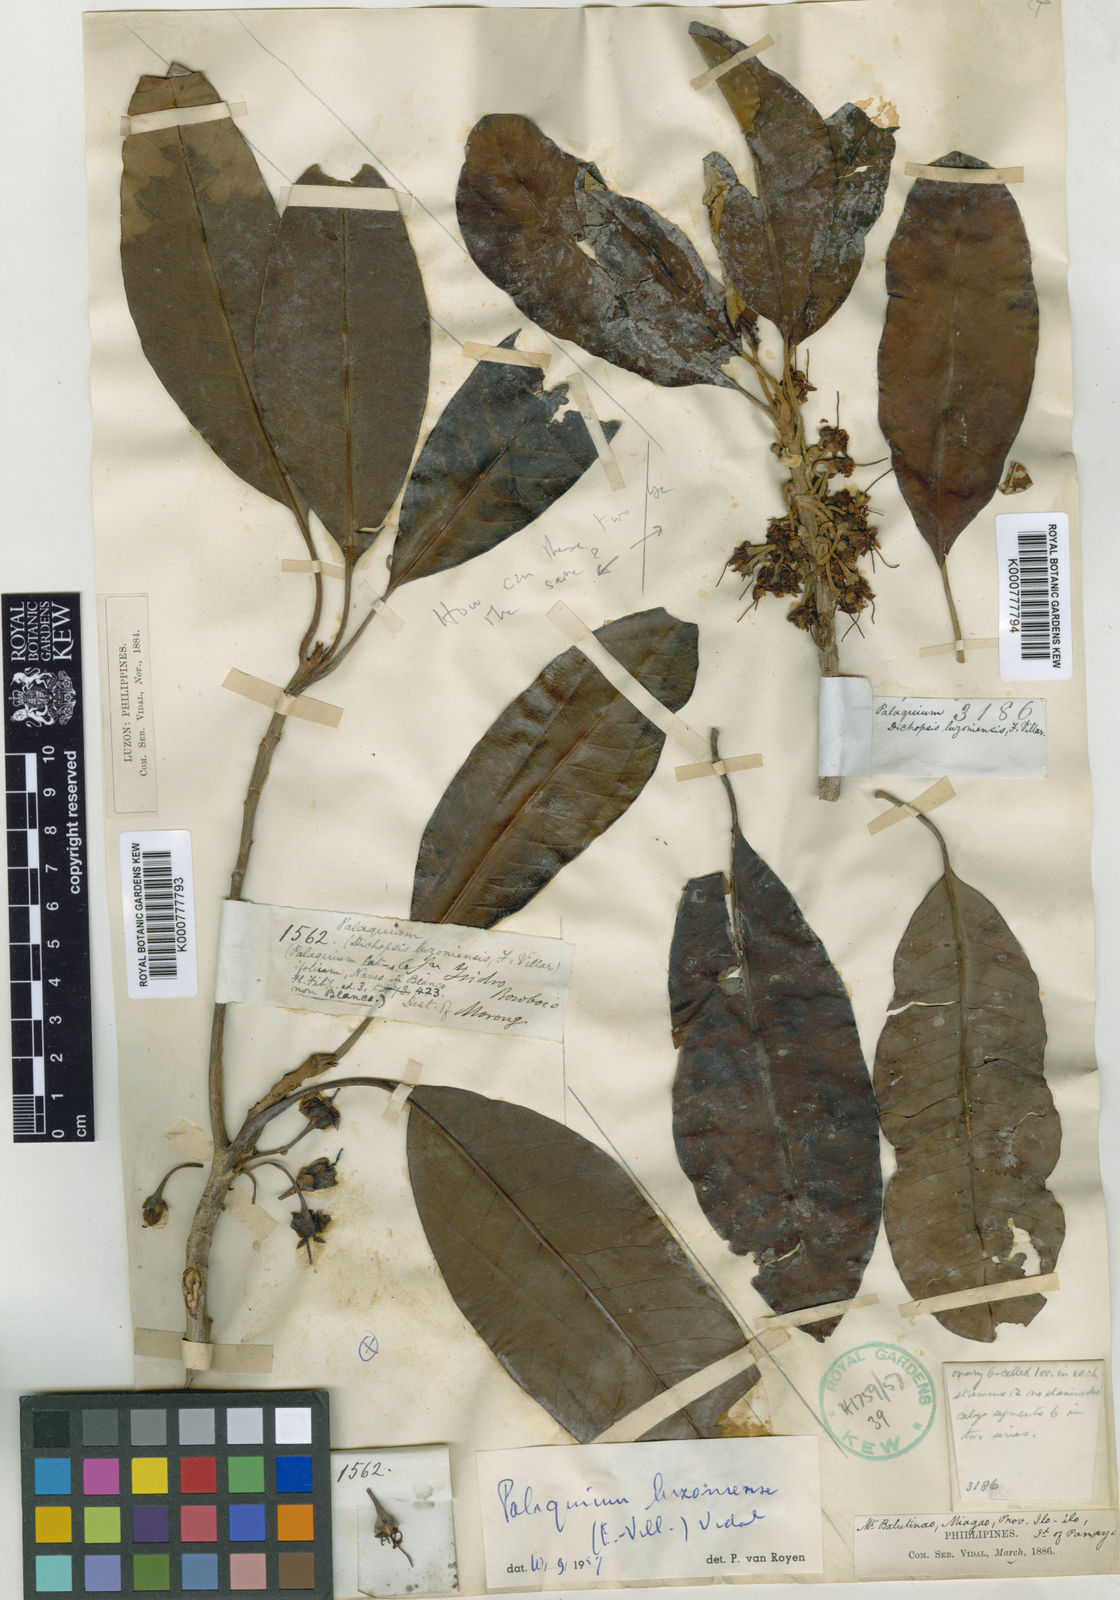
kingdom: Plantae
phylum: Tracheophyta
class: Magnoliopsida
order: Ericales
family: Sapotaceae
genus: Palaquium
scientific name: Palaquium luzoniense
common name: Red nato
